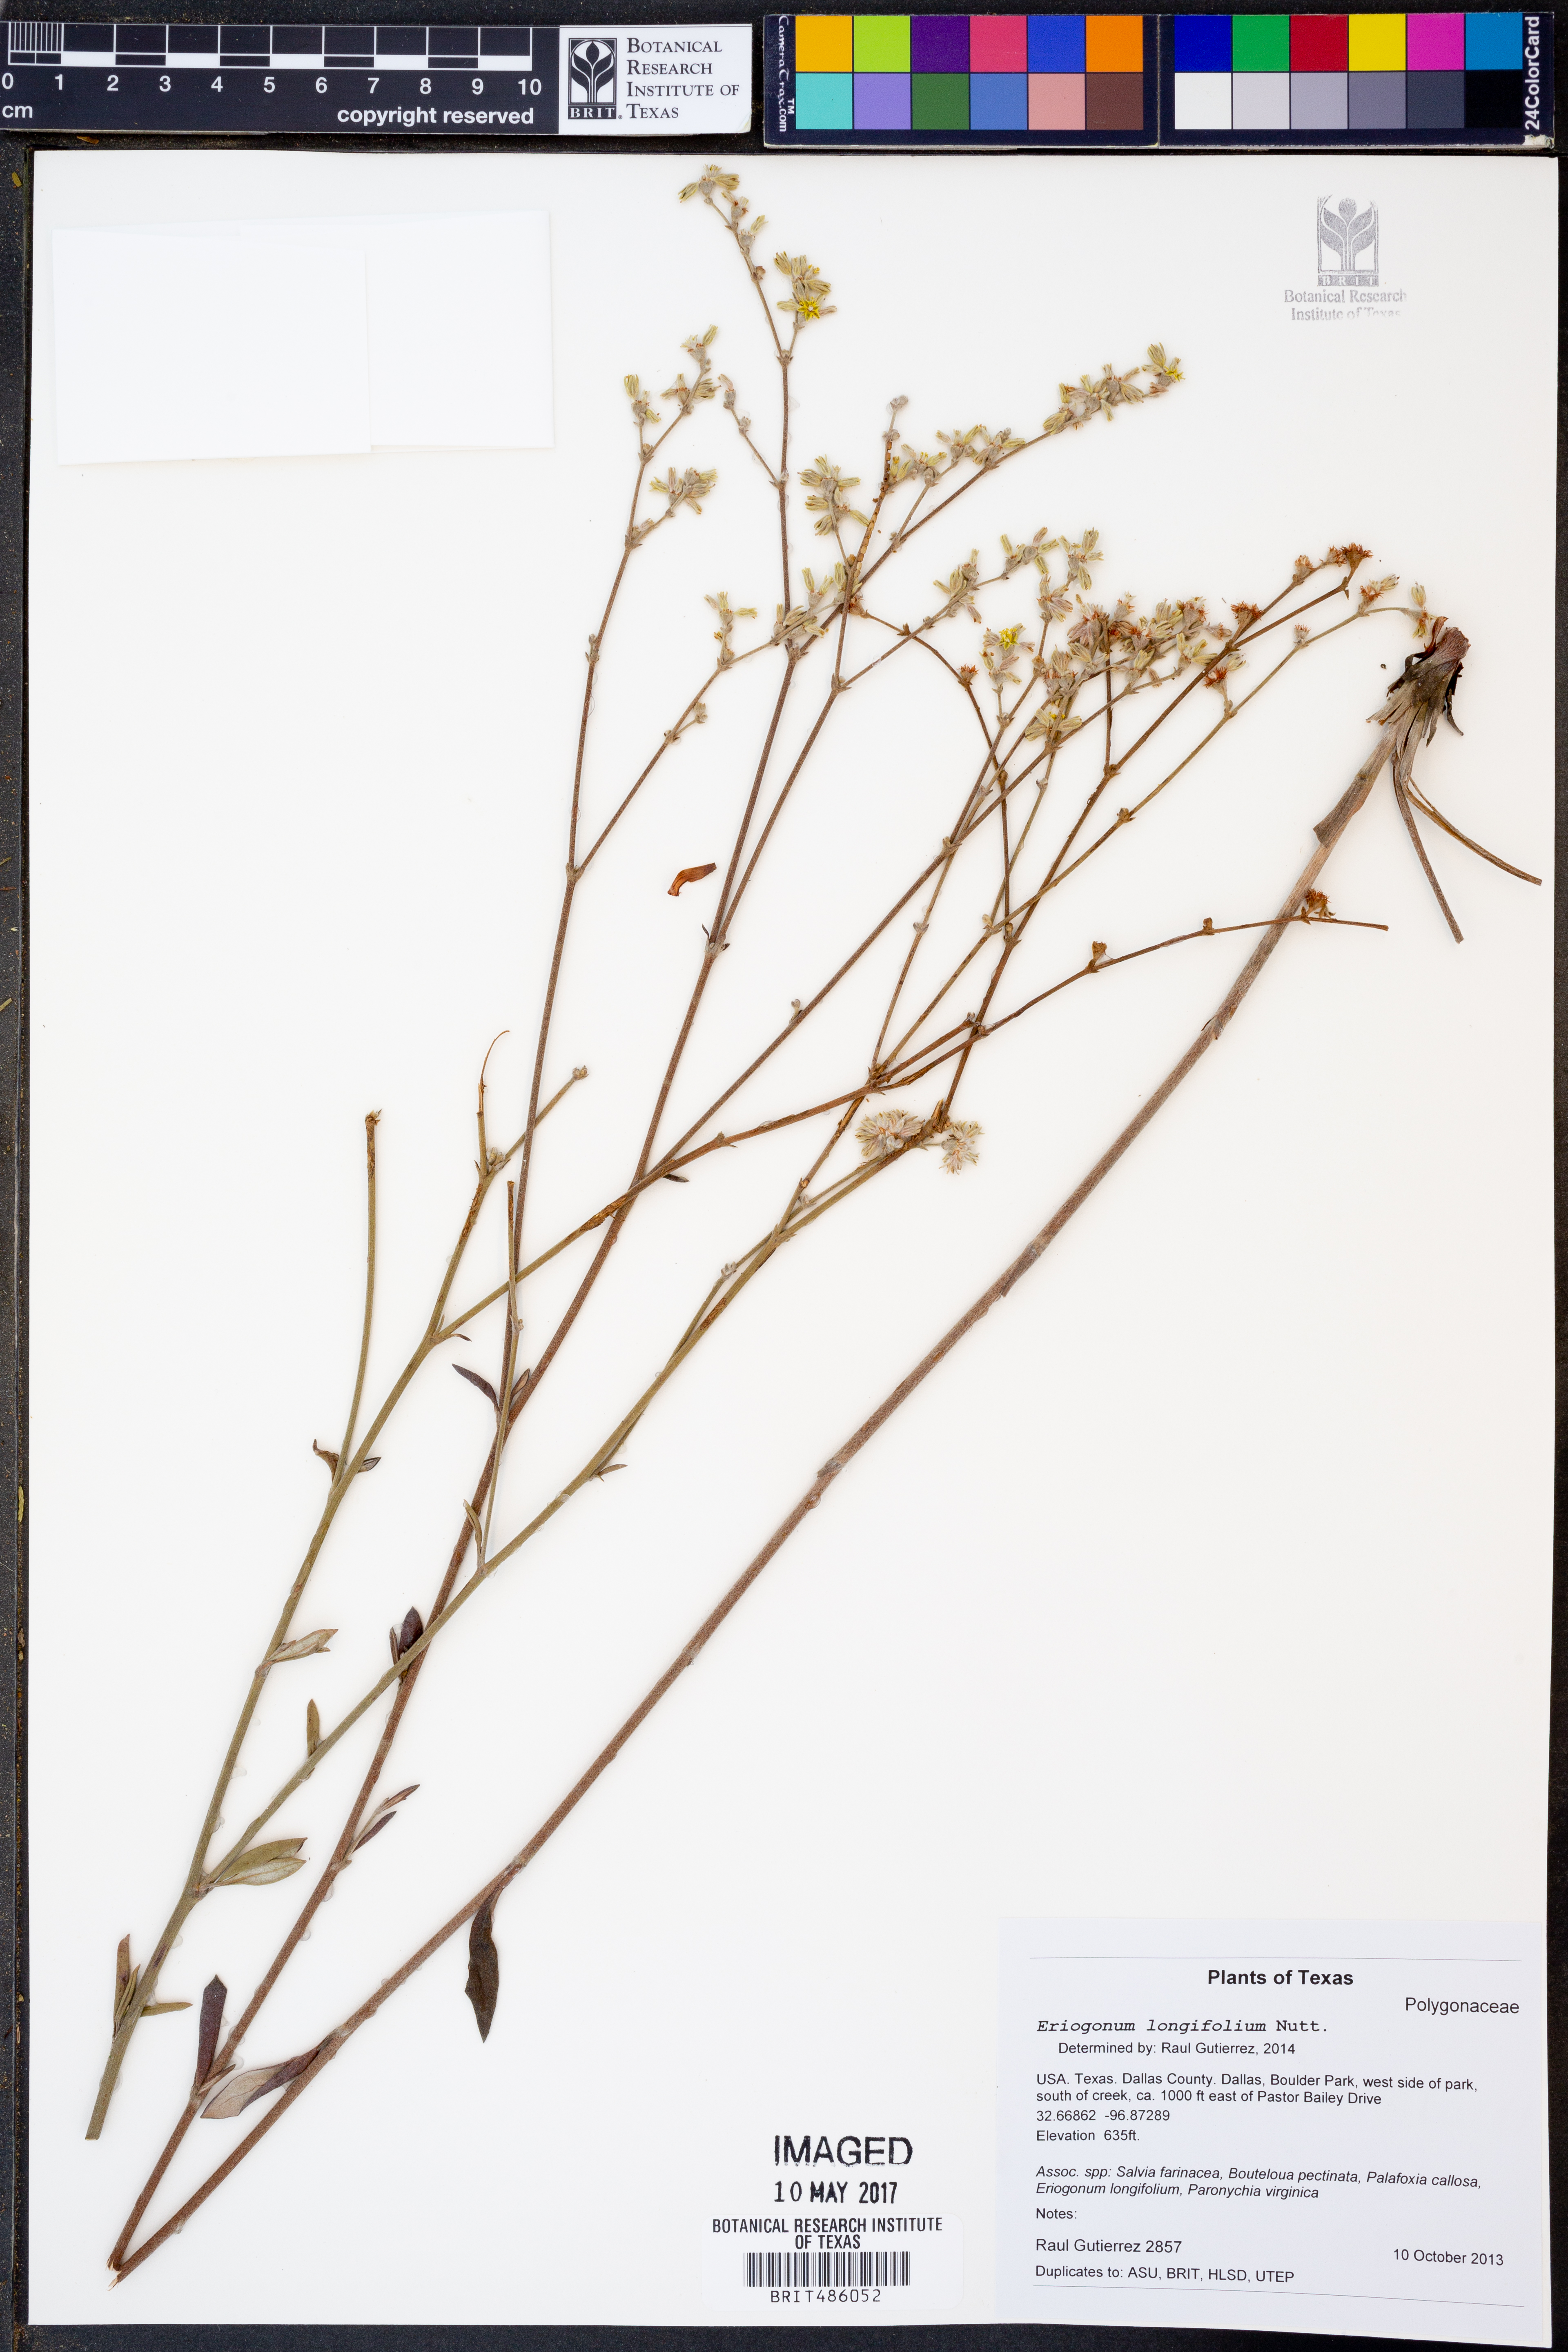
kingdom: Plantae
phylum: Tracheophyta
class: Magnoliopsida
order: Caryophyllales
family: Polygonaceae
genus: Eriogonum
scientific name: Eriogonum longifolium
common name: Longleaf wild buckwheat
